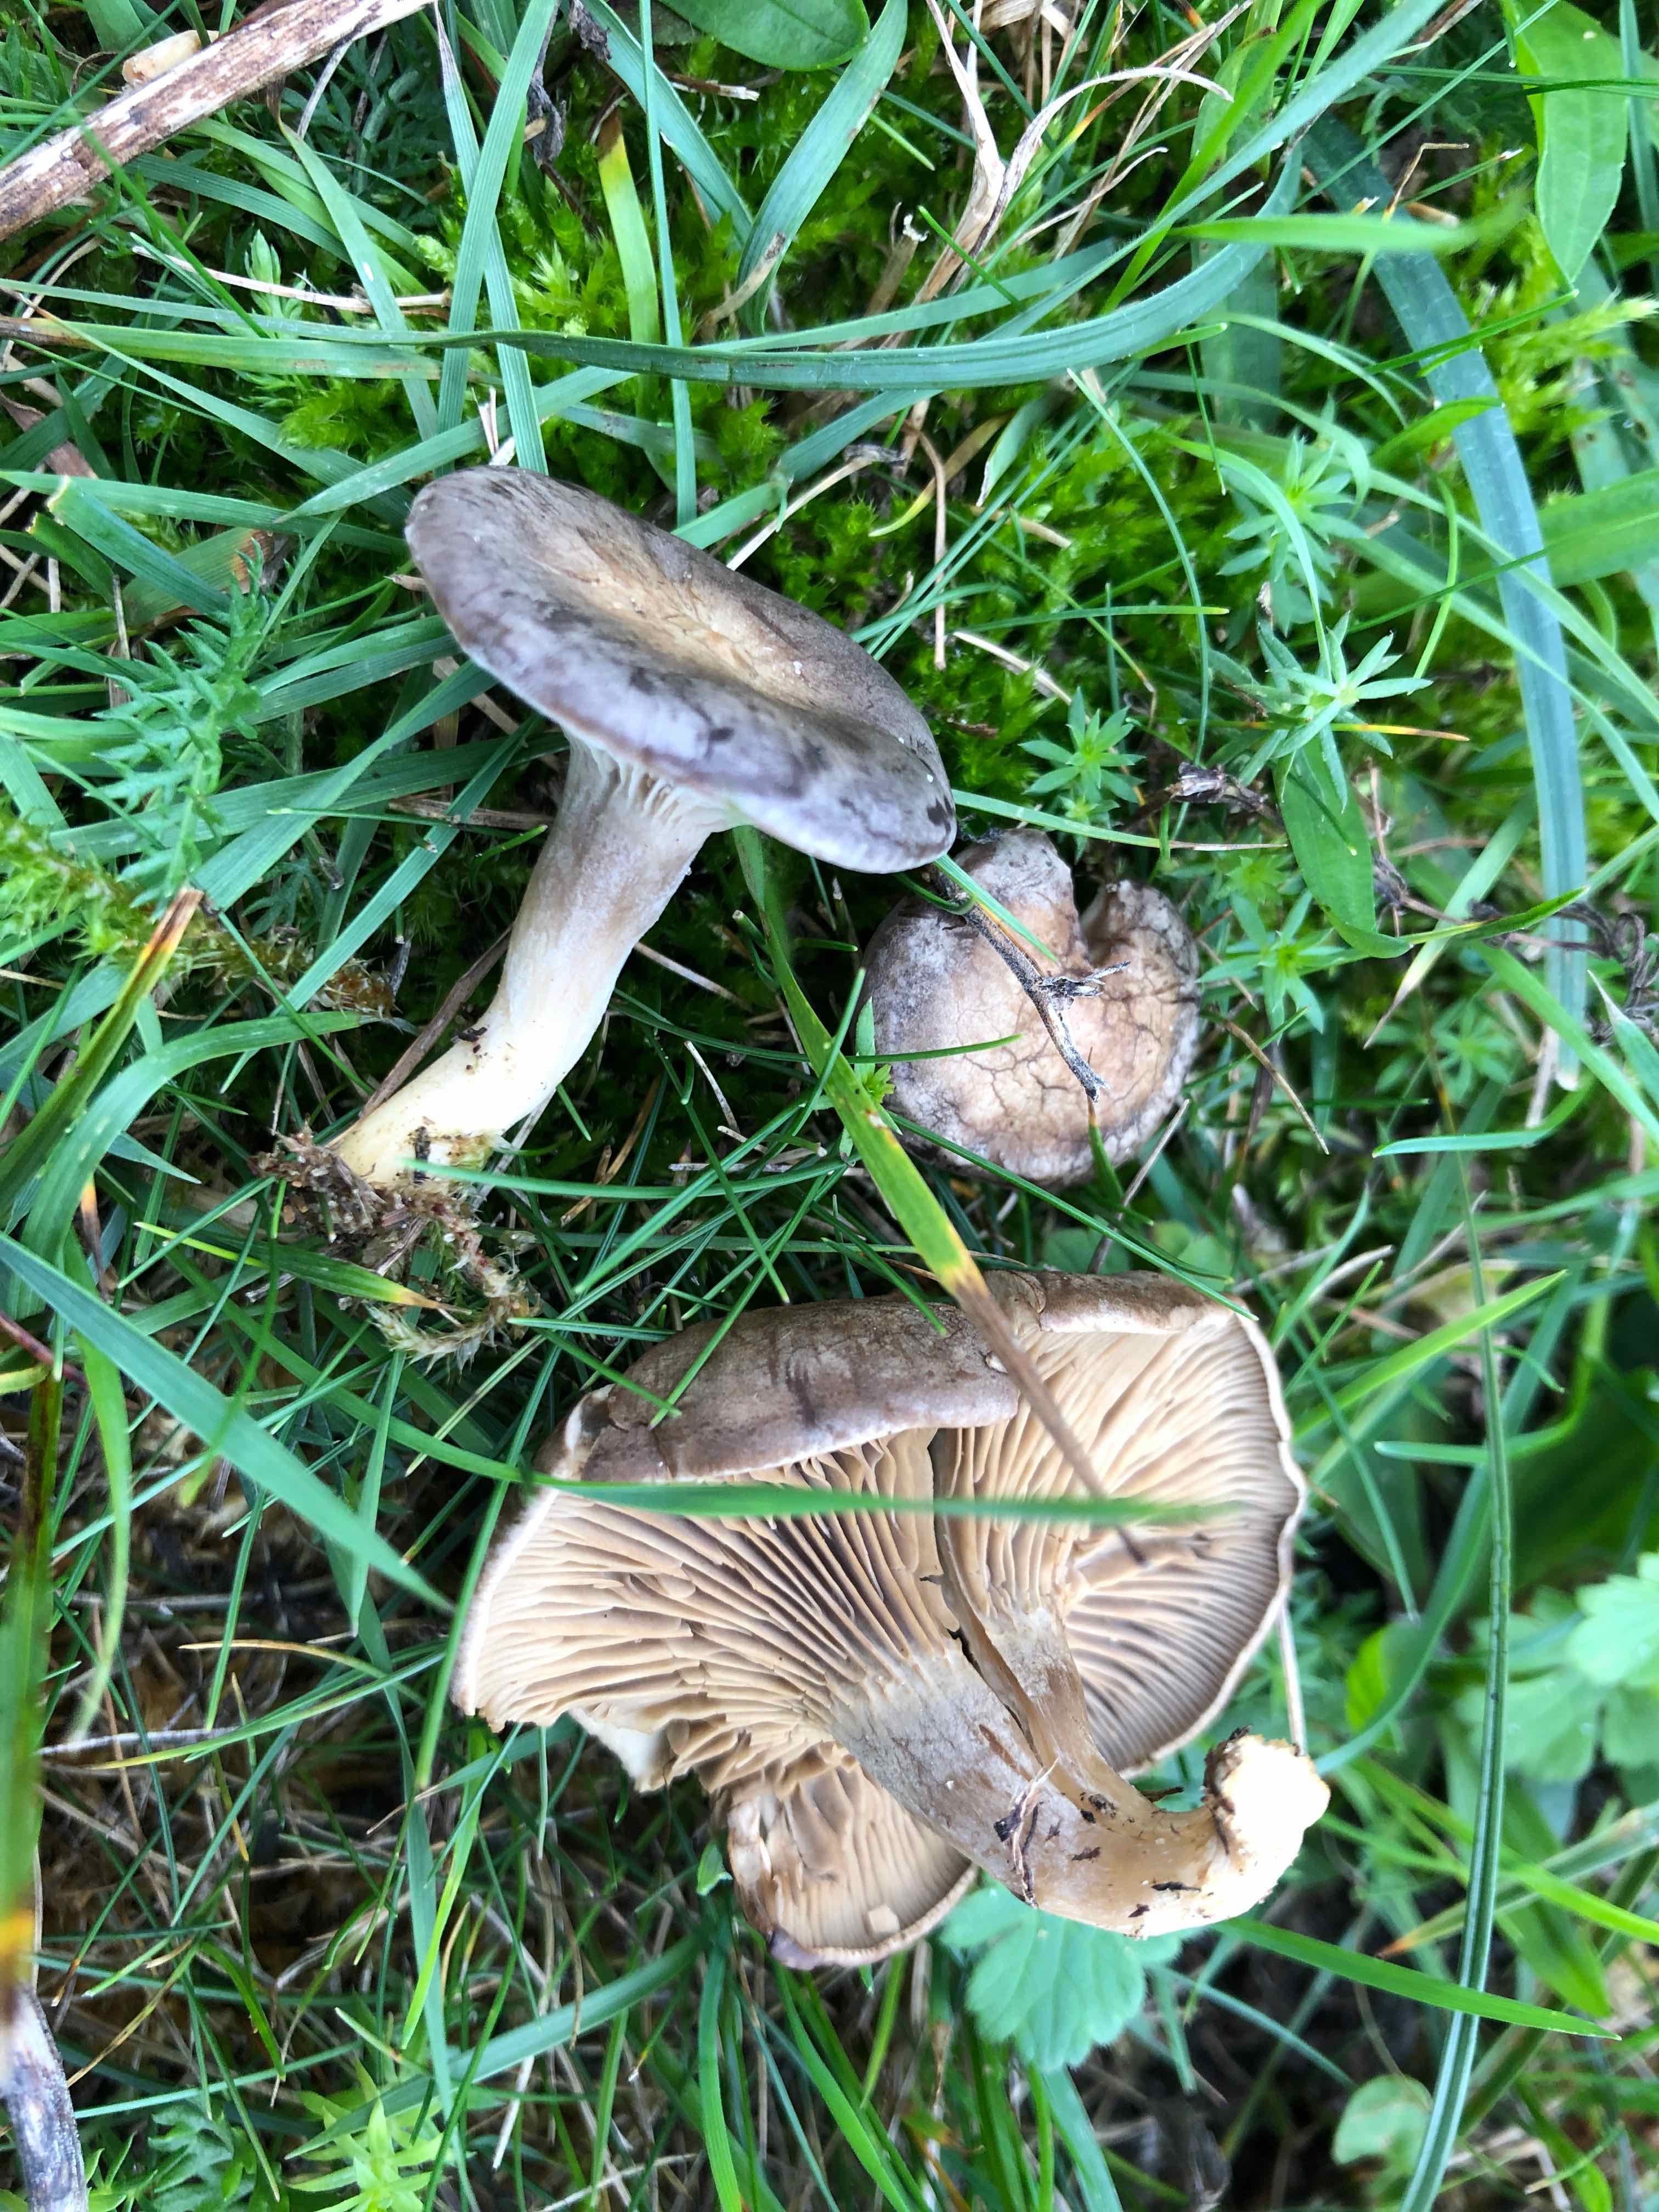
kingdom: Fungi
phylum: Basidiomycota
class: Agaricomycetes
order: Agaricales
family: Tricholomataceae
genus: Lulesia
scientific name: Lulesia
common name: sortnende troldhat
